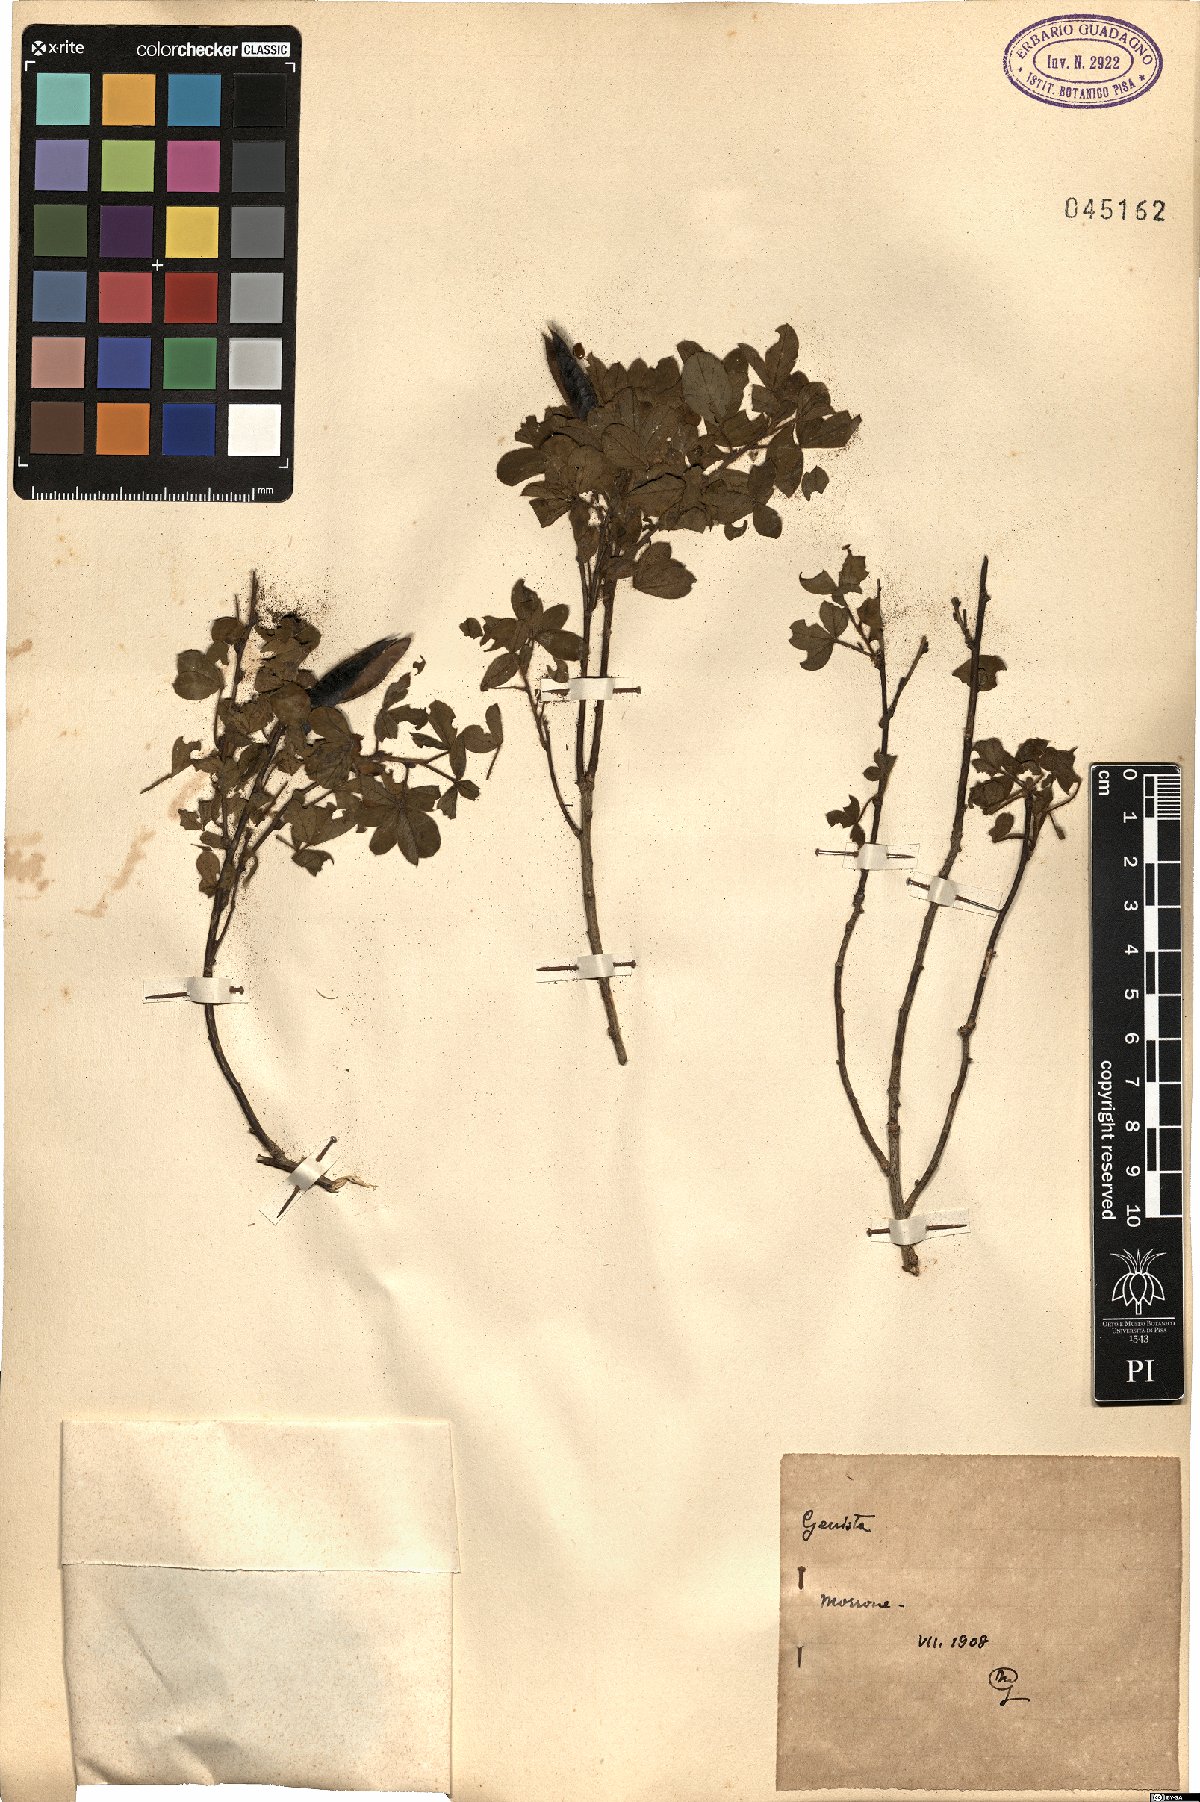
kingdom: Plantae
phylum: Tracheophyta
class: Magnoliopsida
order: Fabales
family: Fabaceae
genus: Genista
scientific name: Genista
